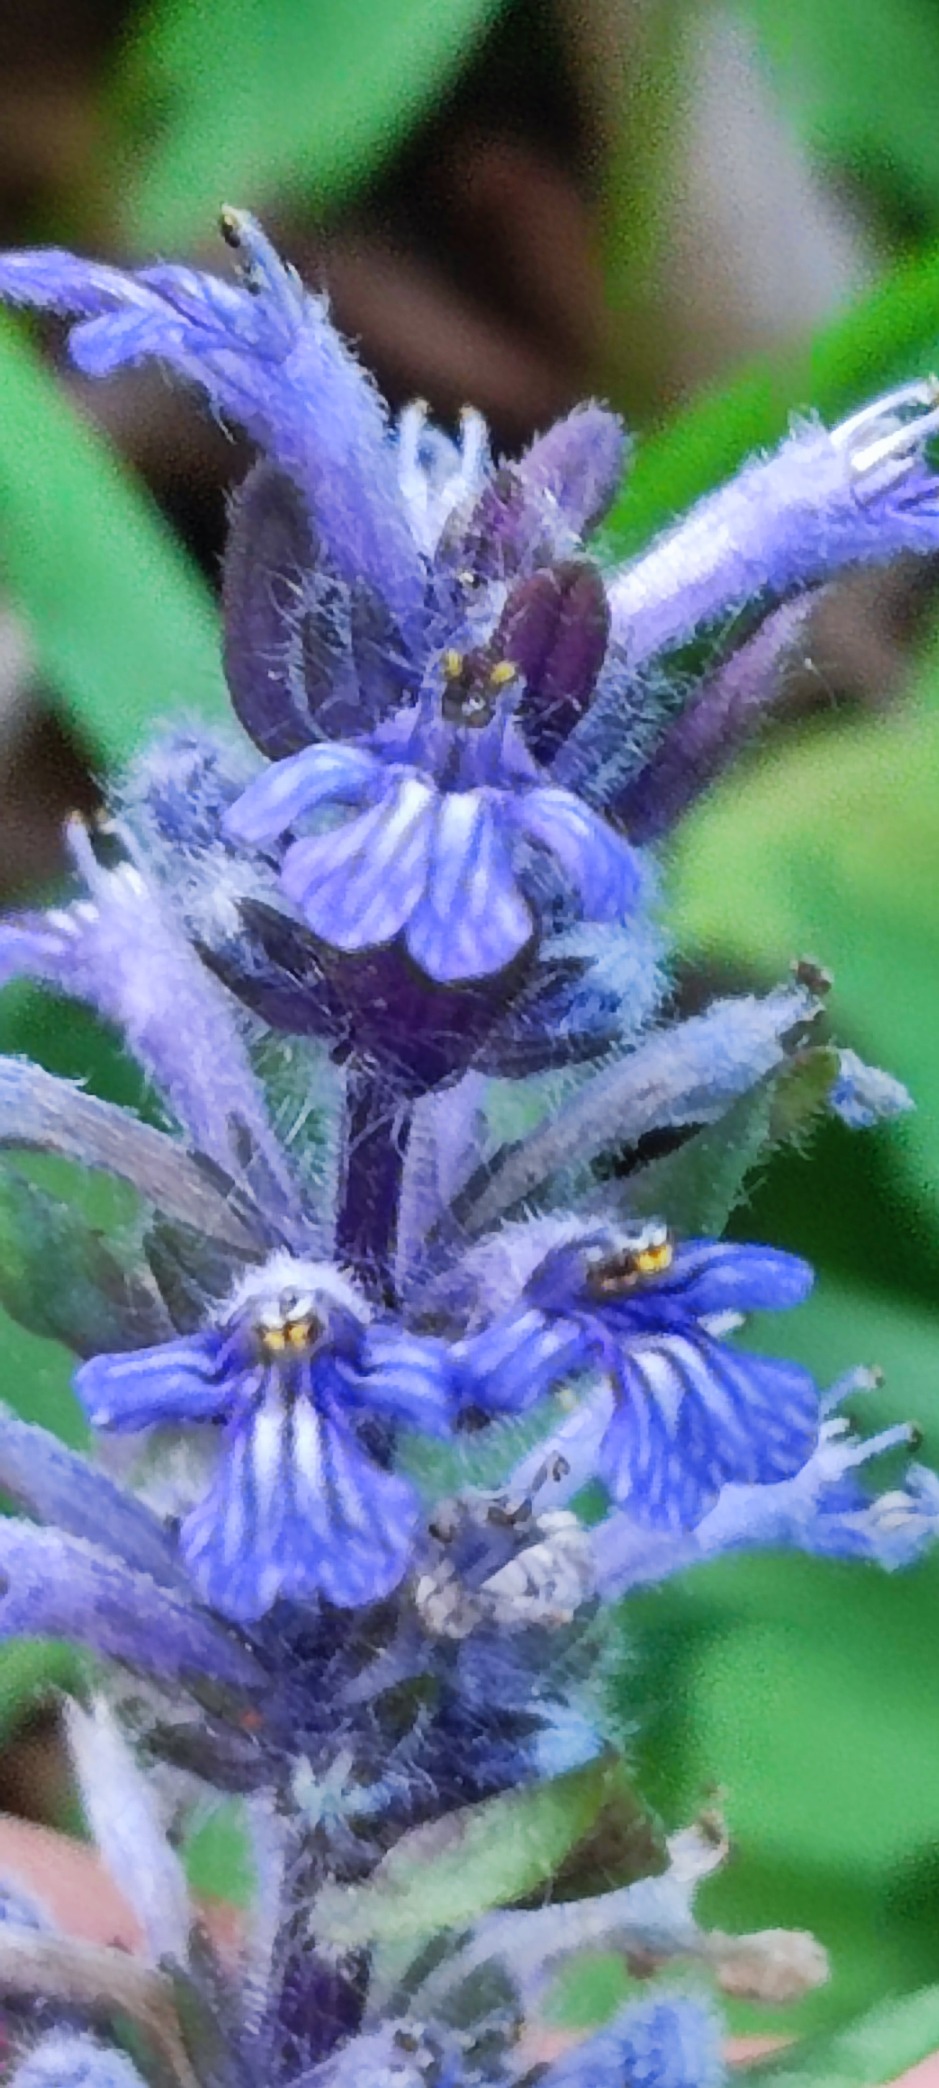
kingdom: Plantae
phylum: Tracheophyta
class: Magnoliopsida
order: Lamiales
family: Lamiaceae
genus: Ajuga
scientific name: Ajuga reptans
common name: Krybende læbeløs
